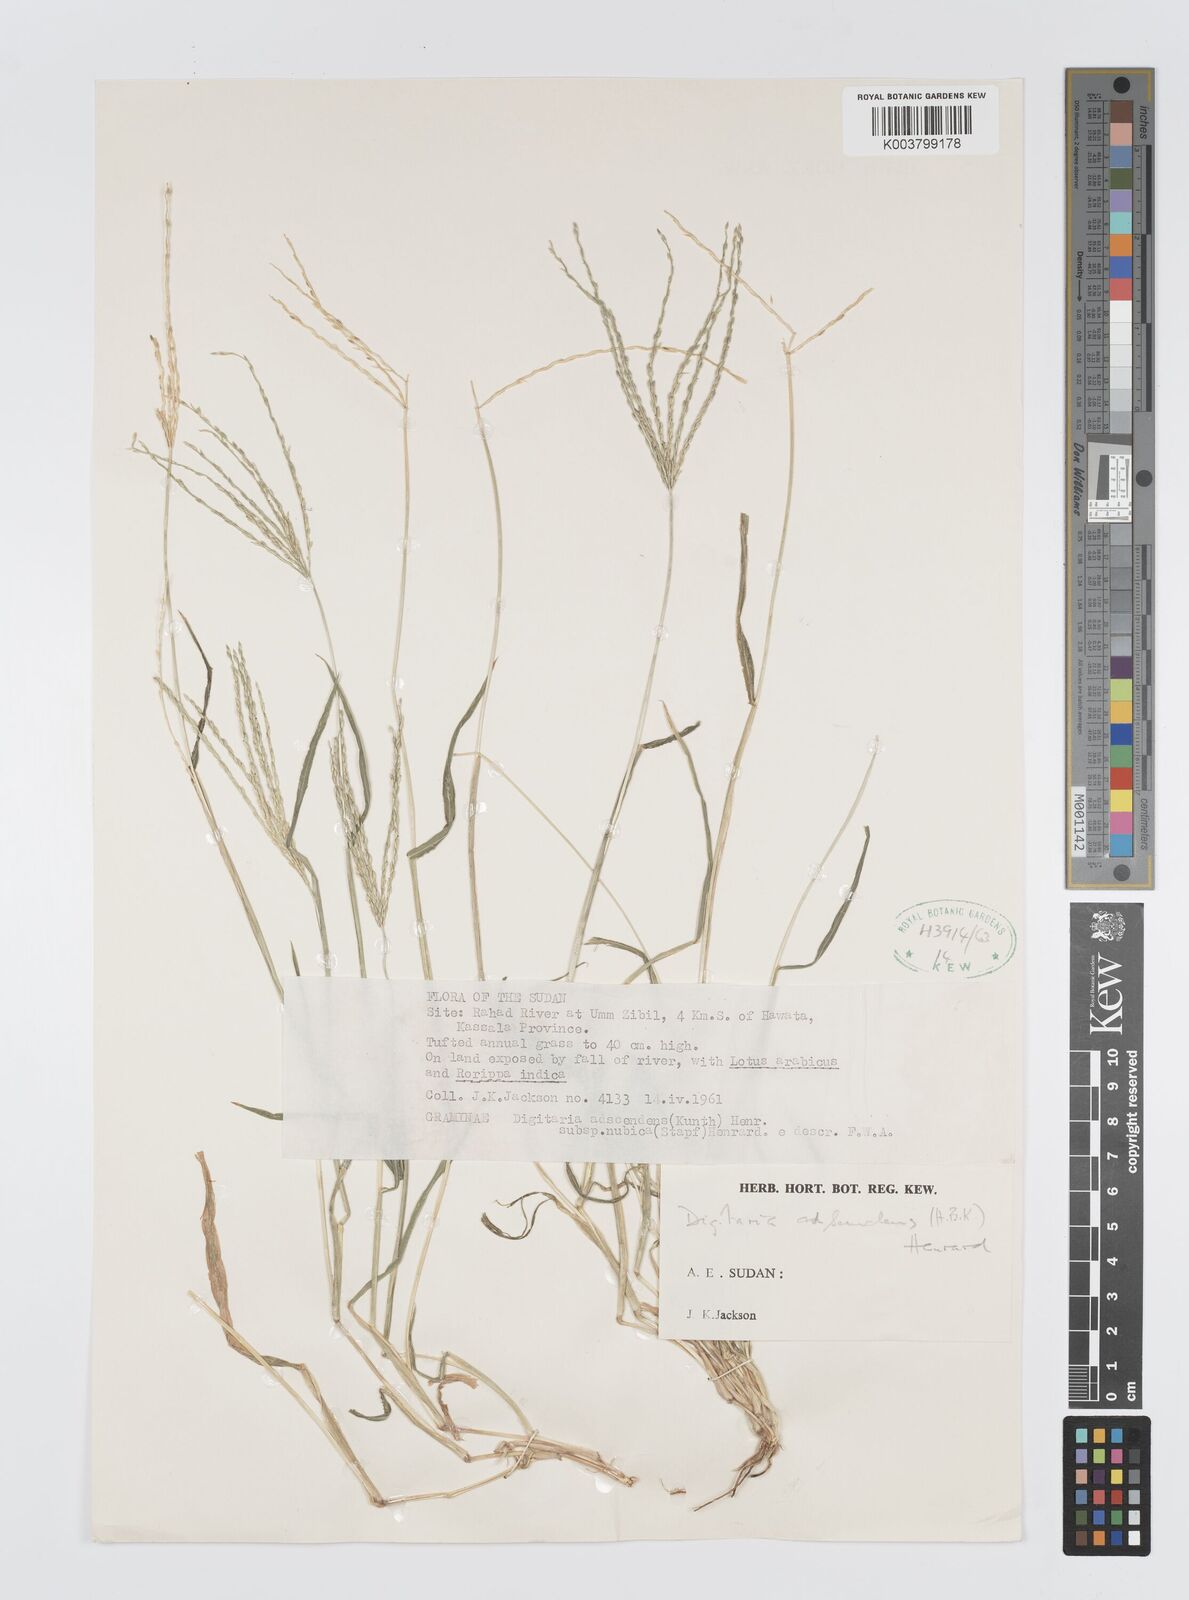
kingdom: Plantae
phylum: Tracheophyta
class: Liliopsida
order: Poales
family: Poaceae
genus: Digitaria
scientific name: Digitaria sanguinalis
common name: Hairy crabgrass
